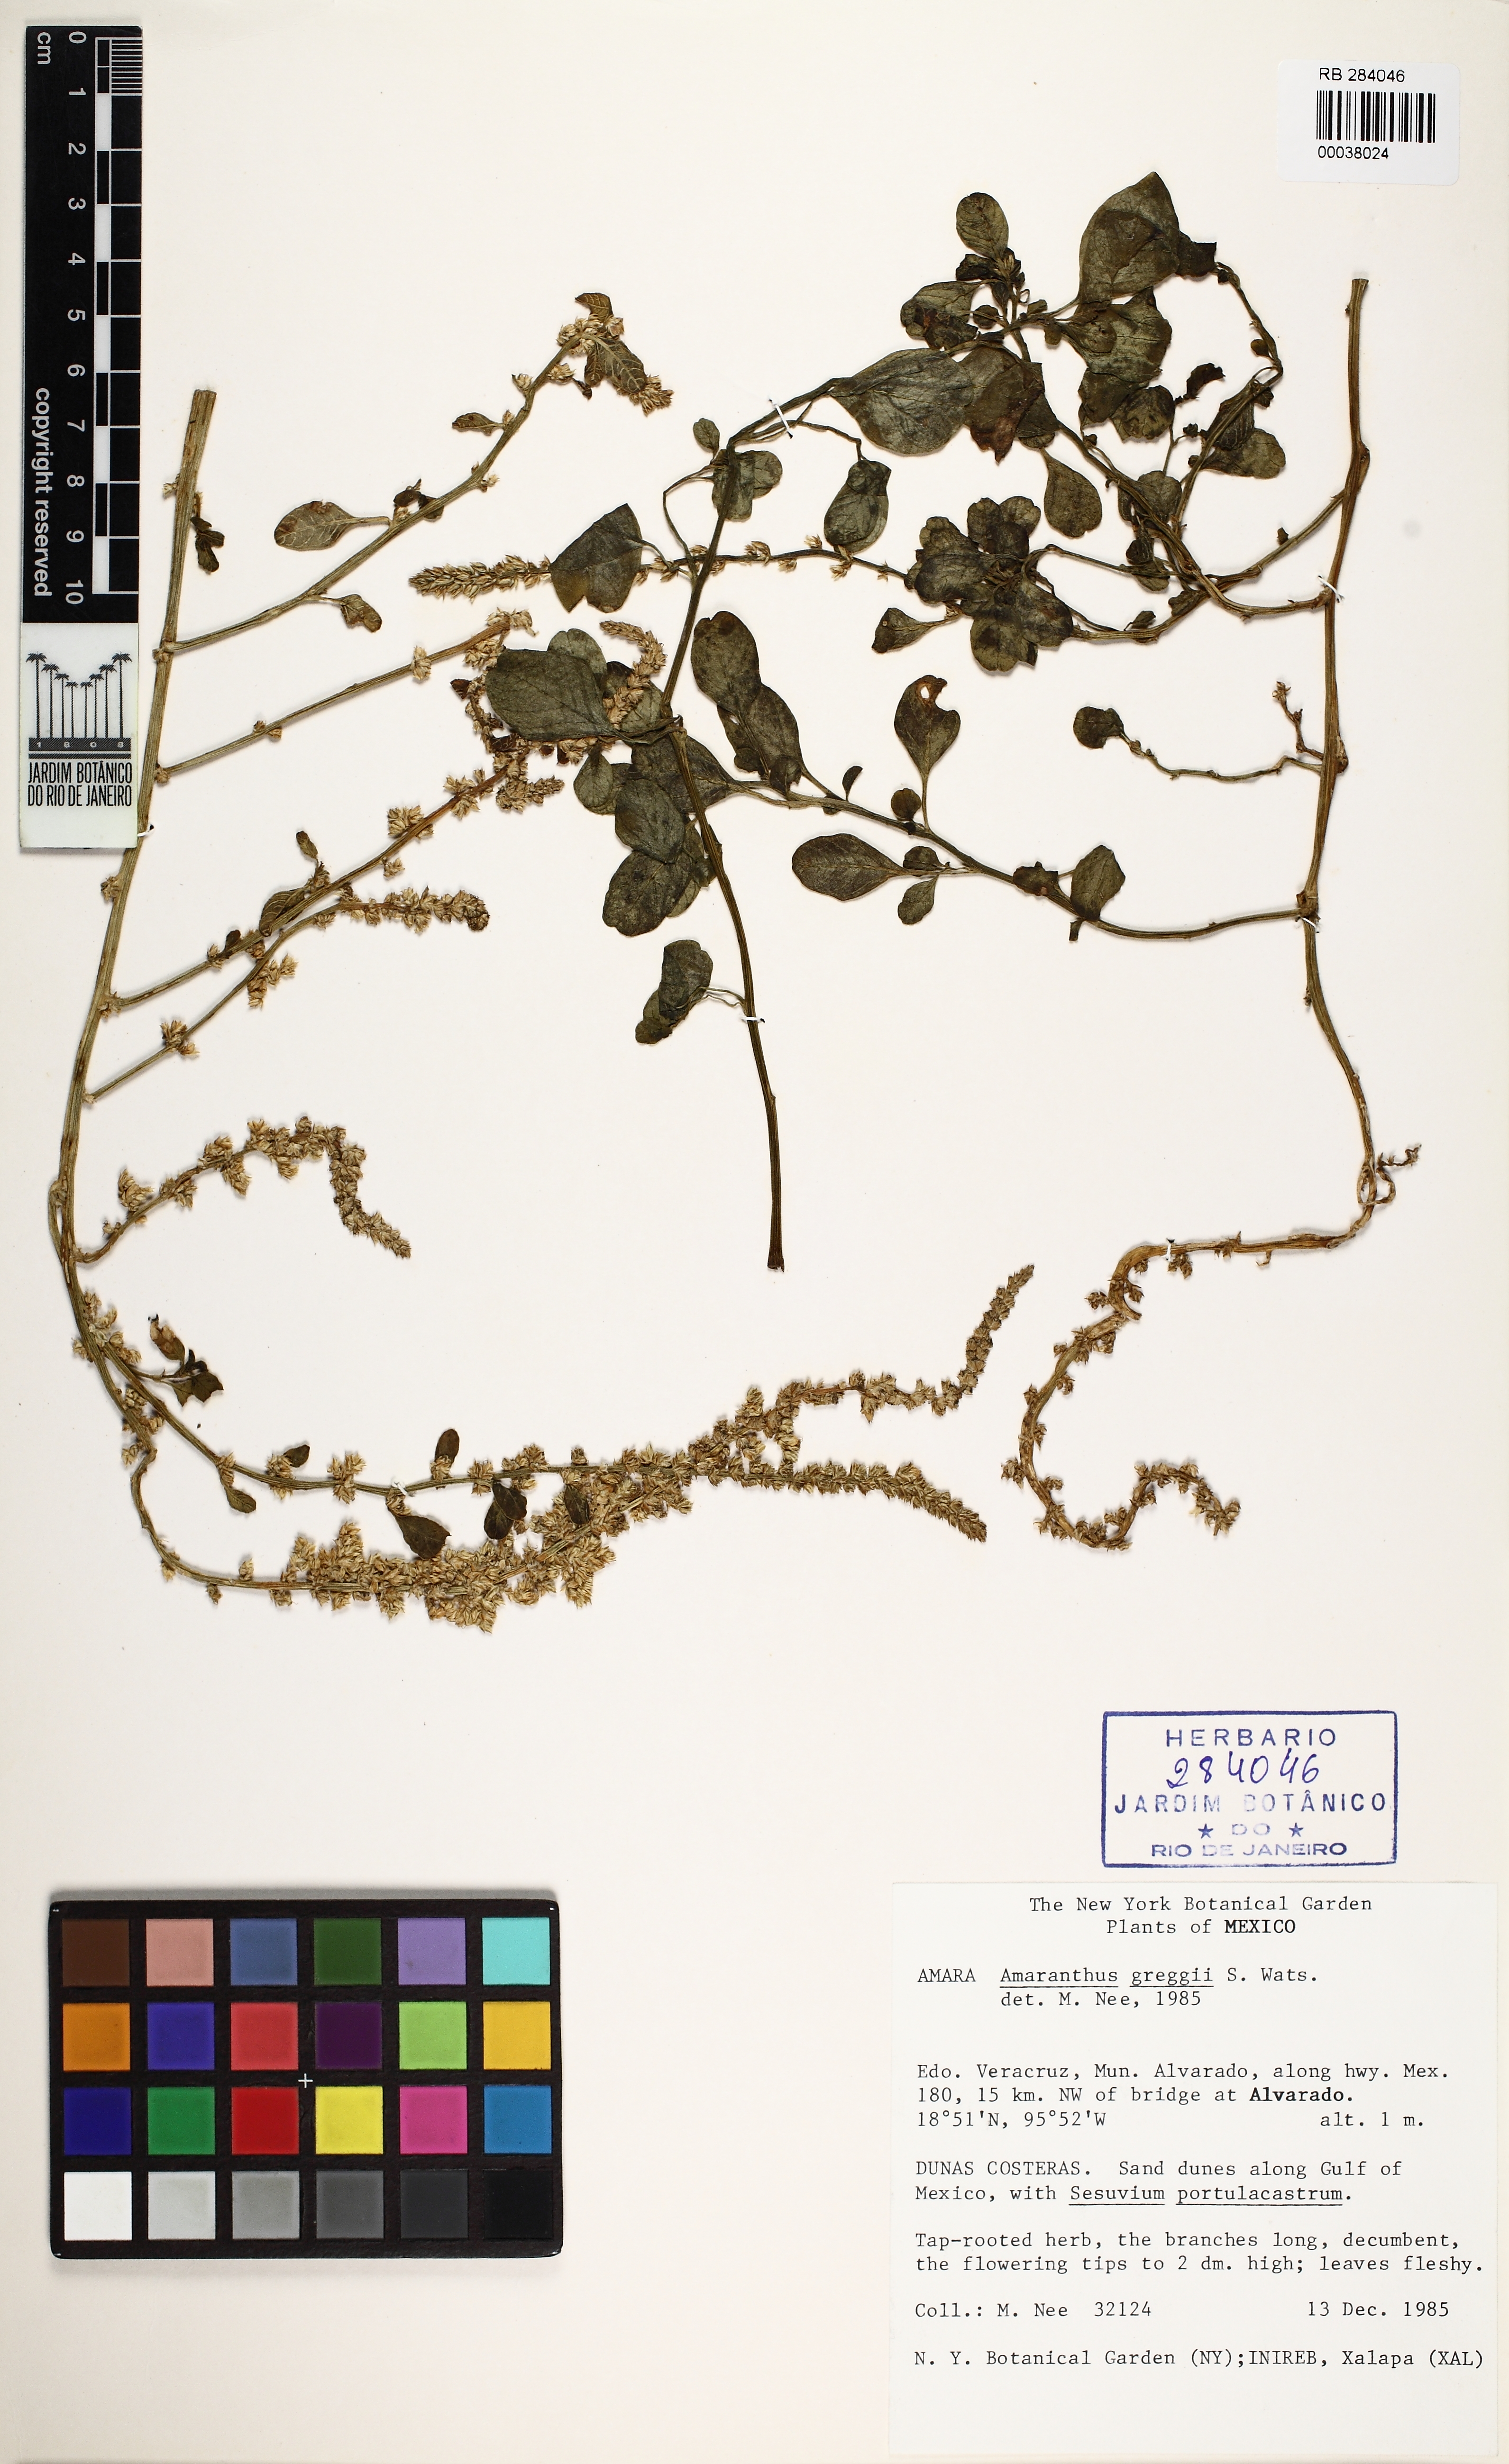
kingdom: Plantae
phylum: Tracheophyta
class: Magnoliopsida
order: Caryophyllales
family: Amaranthaceae
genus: Amaranthus
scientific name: Amaranthus greggii
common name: Josiah amaranth
